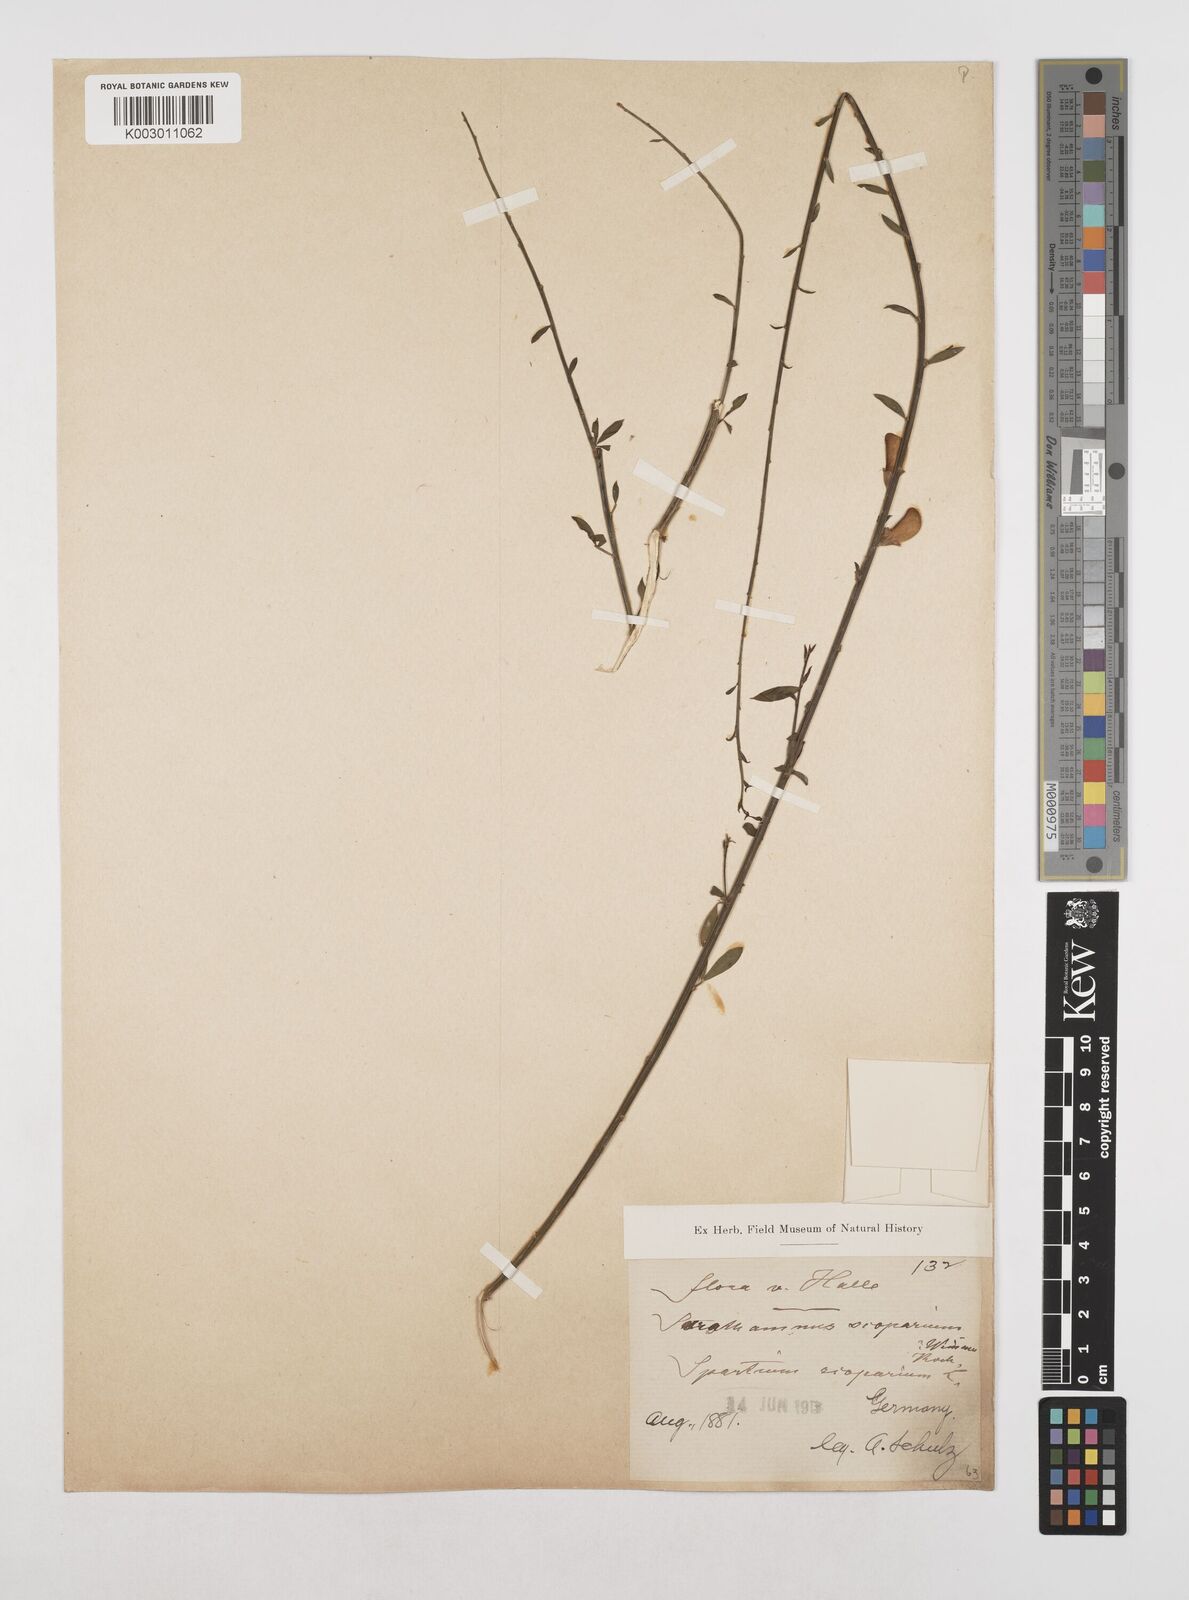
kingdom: Plantae
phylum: Tracheophyta
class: Magnoliopsida
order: Fabales
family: Fabaceae
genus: Cytisus
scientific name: Cytisus scoparius
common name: Scotch broom
